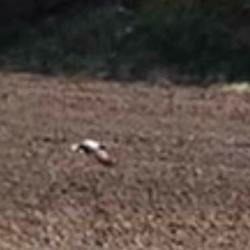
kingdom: Animalia
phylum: Chordata
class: Aves
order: Accipitriformes
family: Accipitridae
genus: Buteo
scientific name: Buteo buteo
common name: Musvåge
